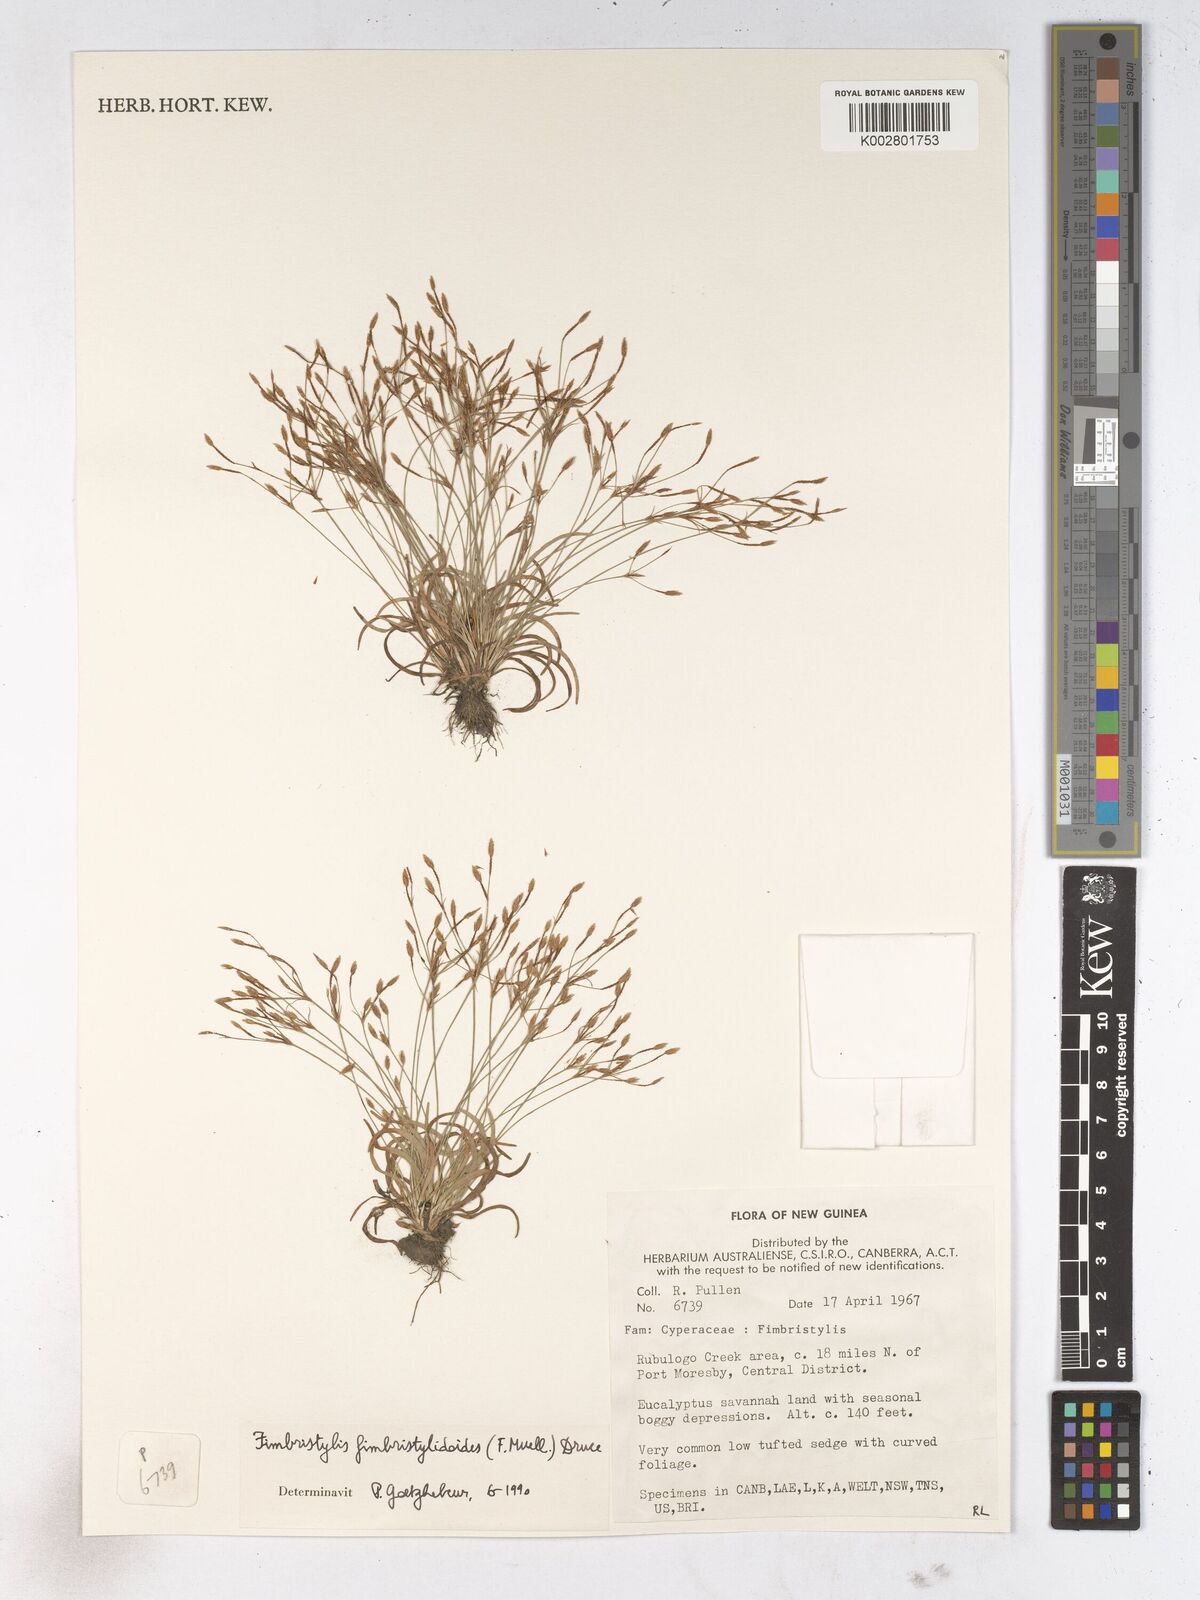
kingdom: Plantae
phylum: Tracheophyta
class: Liliopsida
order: Poales
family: Cyperaceae
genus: Fimbristylis
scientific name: Fimbristylis fimbristyloides
